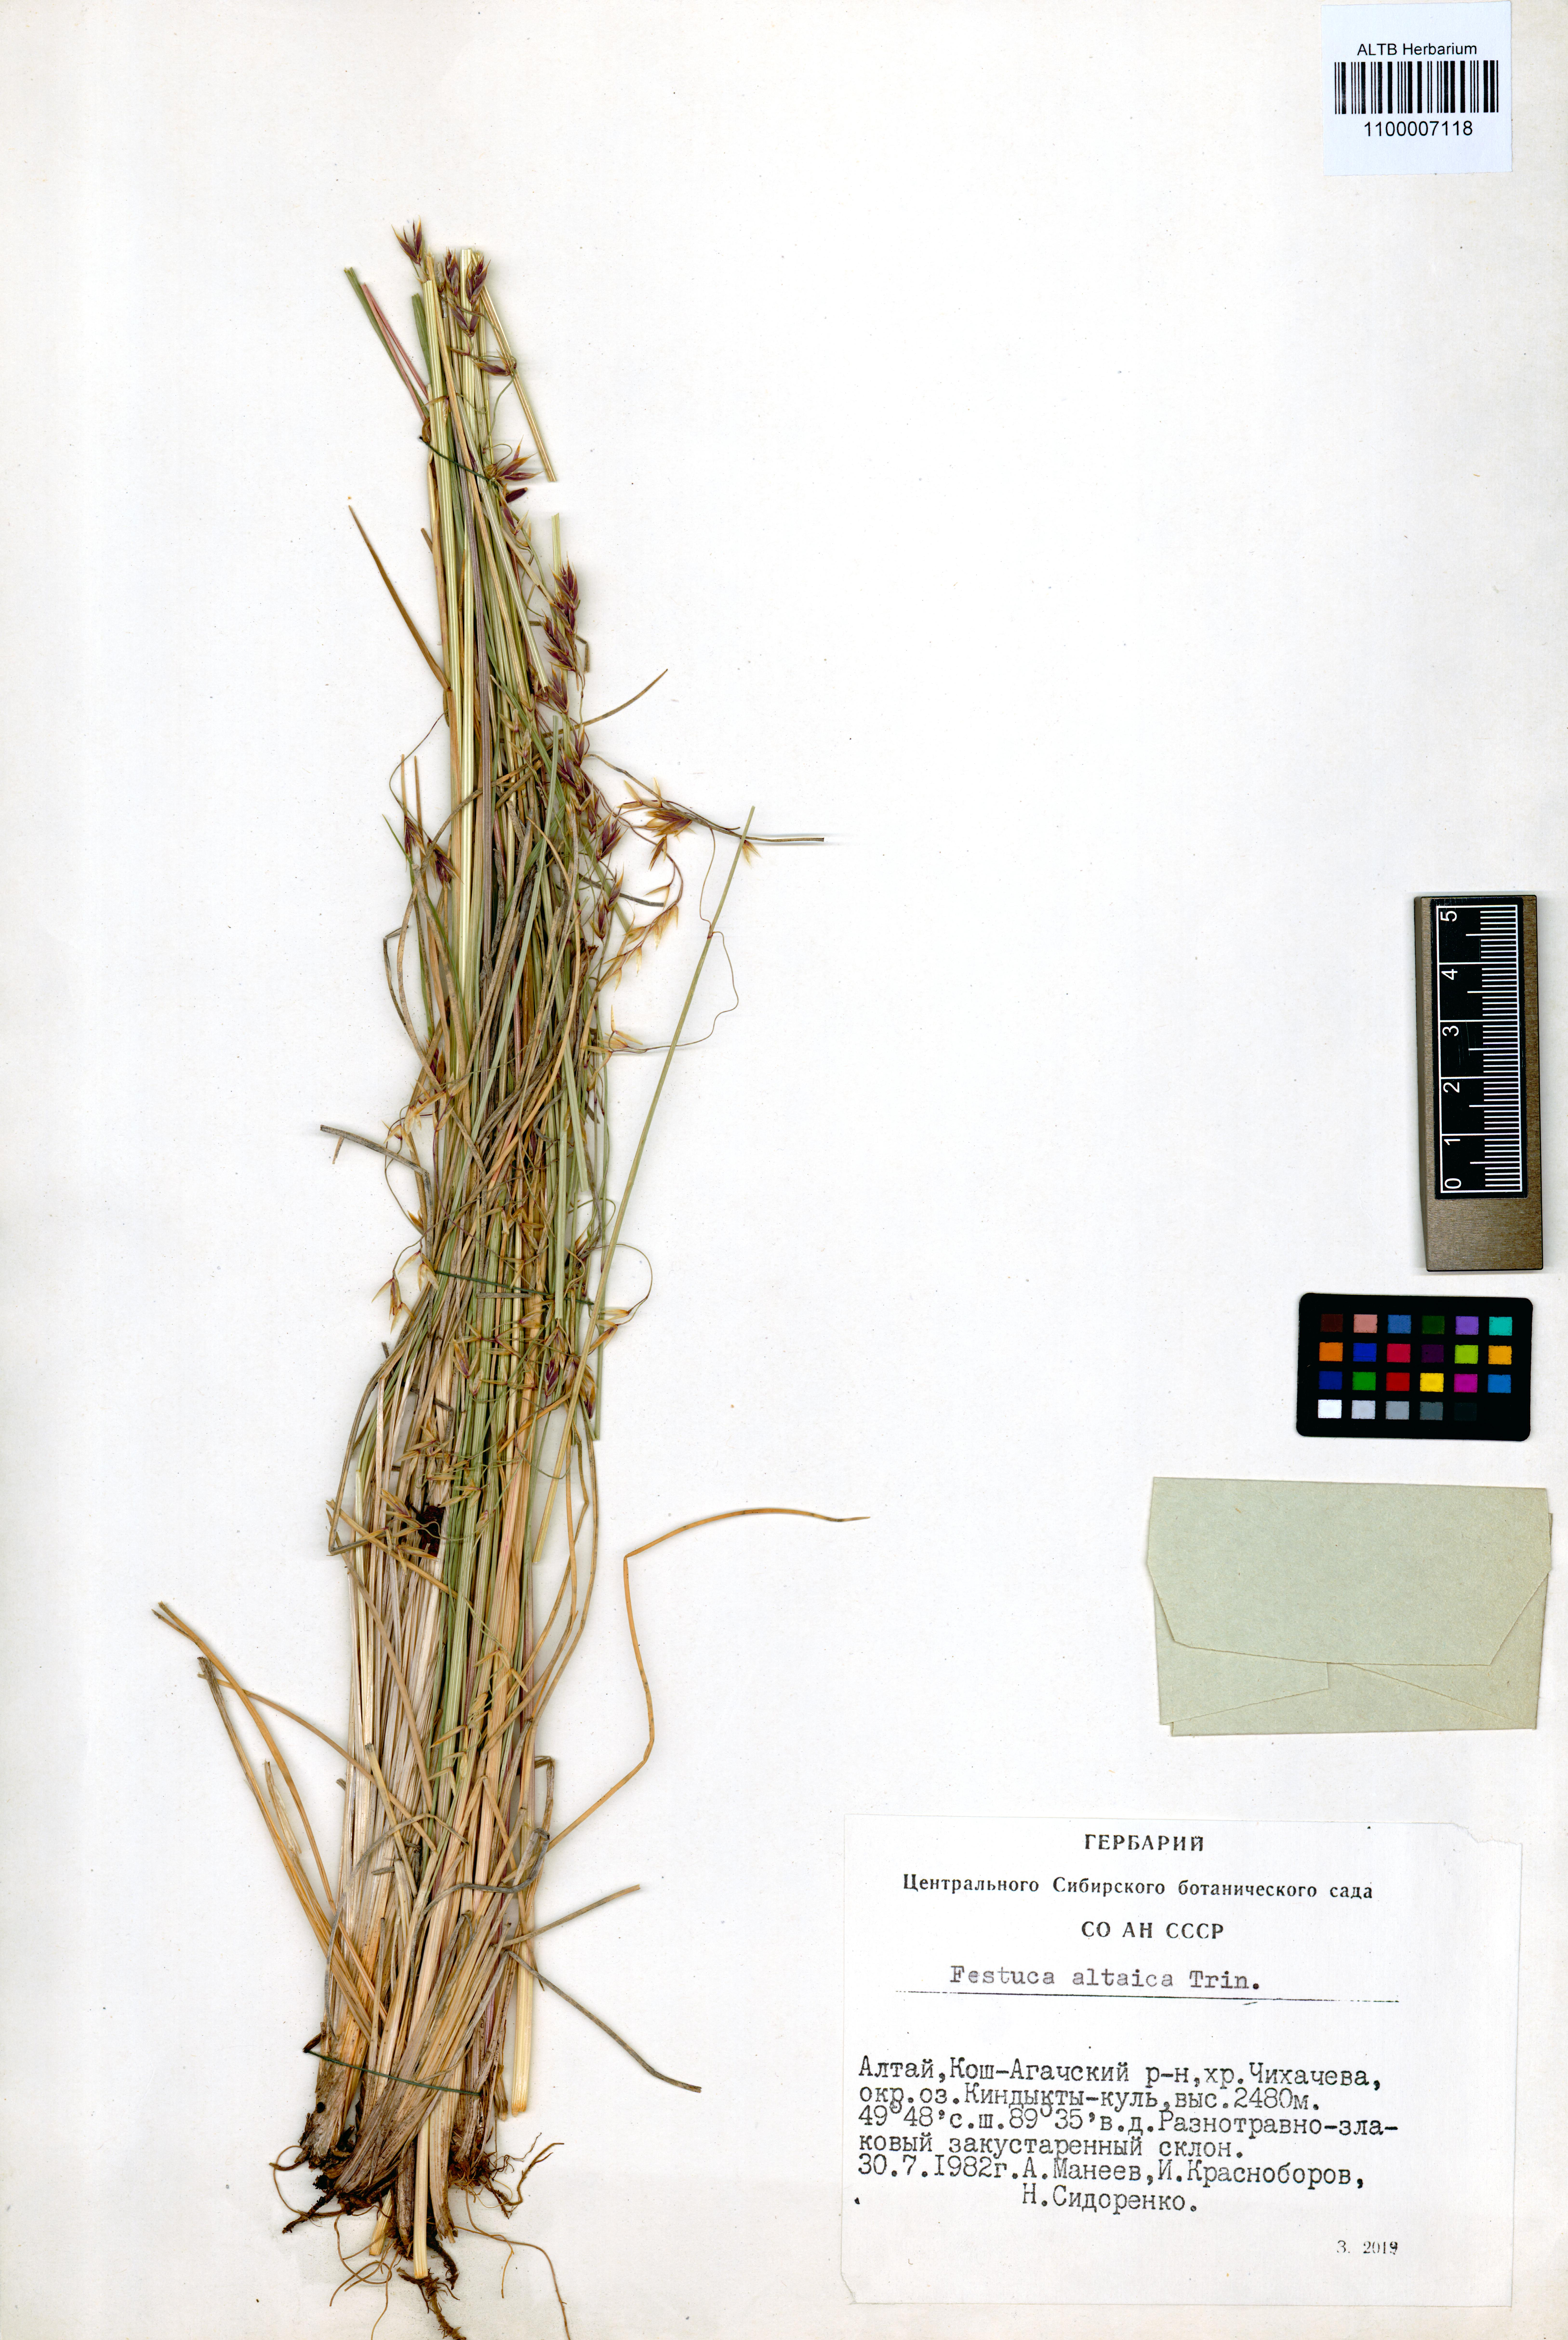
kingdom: Plantae
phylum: Tracheophyta
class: Liliopsida
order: Poales
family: Poaceae
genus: Festuca
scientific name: Festuca altaica
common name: Northern rough fescue
